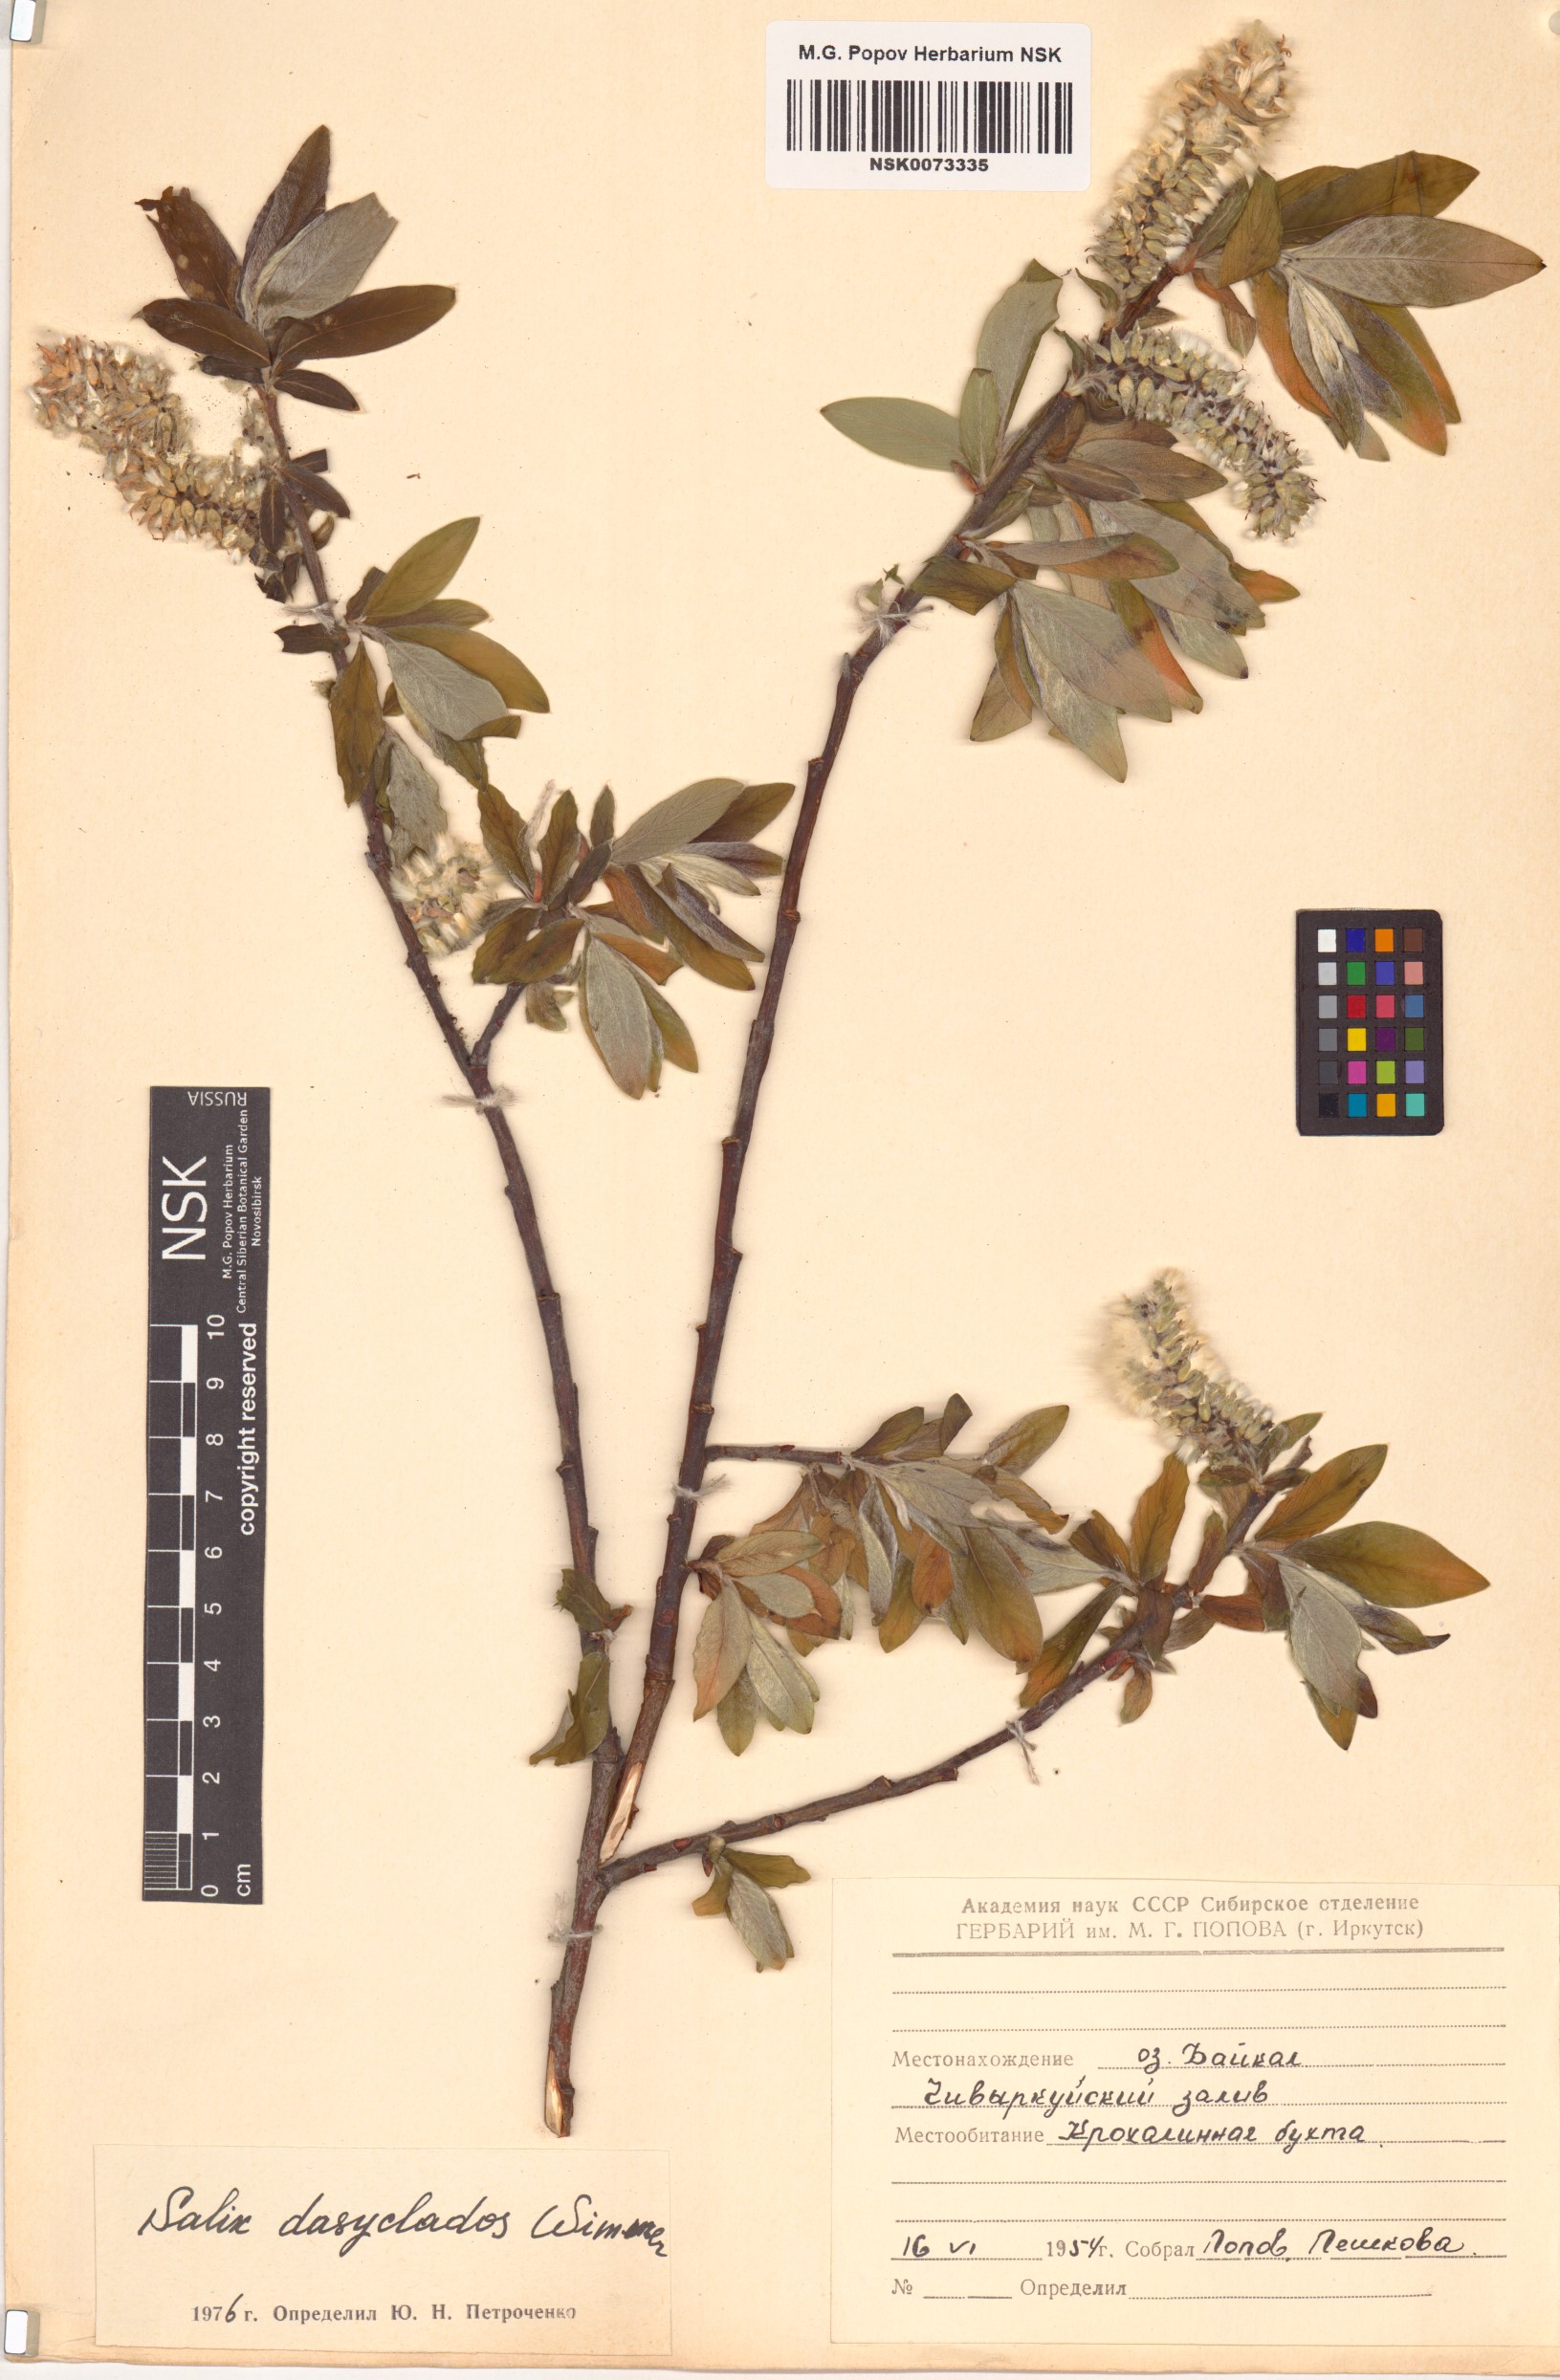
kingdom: Plantae
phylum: Tracheophyta
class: Magnoliopsida
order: Malpighiales
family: Salicaceae
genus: Salix
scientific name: Salix gmelinii
